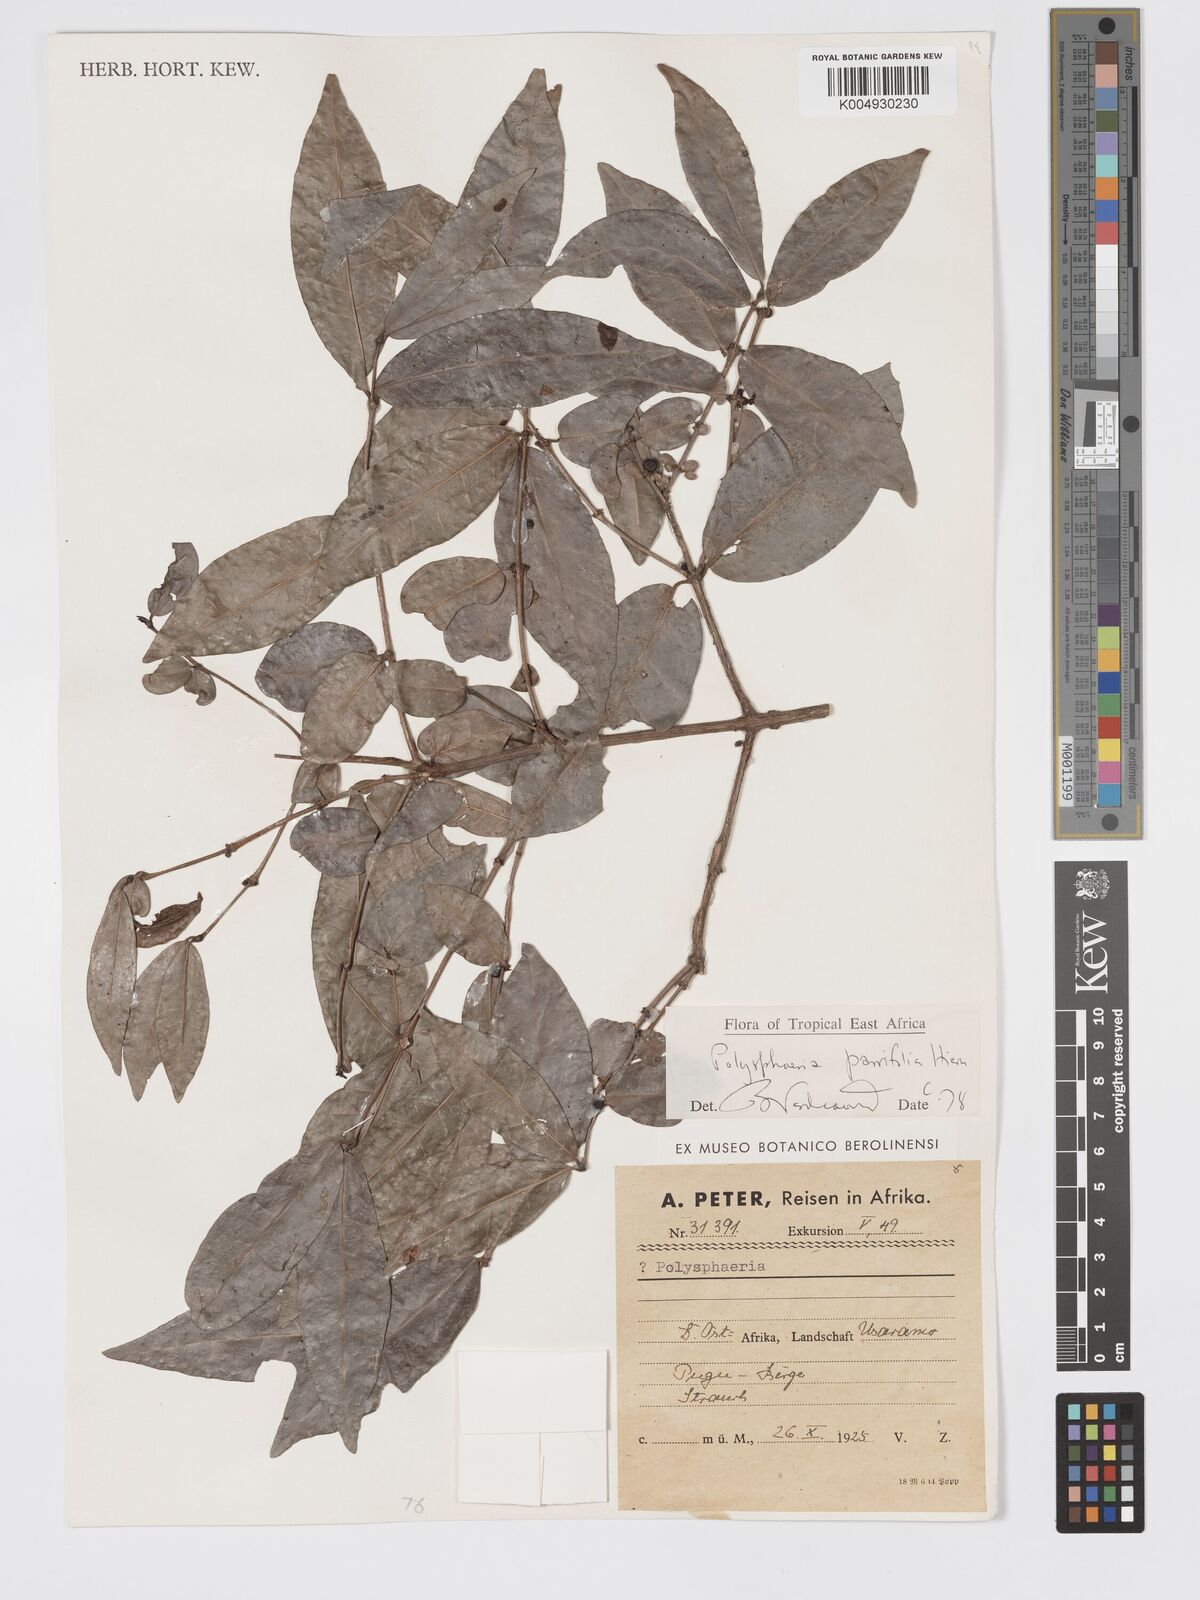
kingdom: Plantae
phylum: Tracheophyta
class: Magnoliopsida
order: Gentianales
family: Rubiaceae
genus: Polysphaeria
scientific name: Polysphaeria parvifolia
